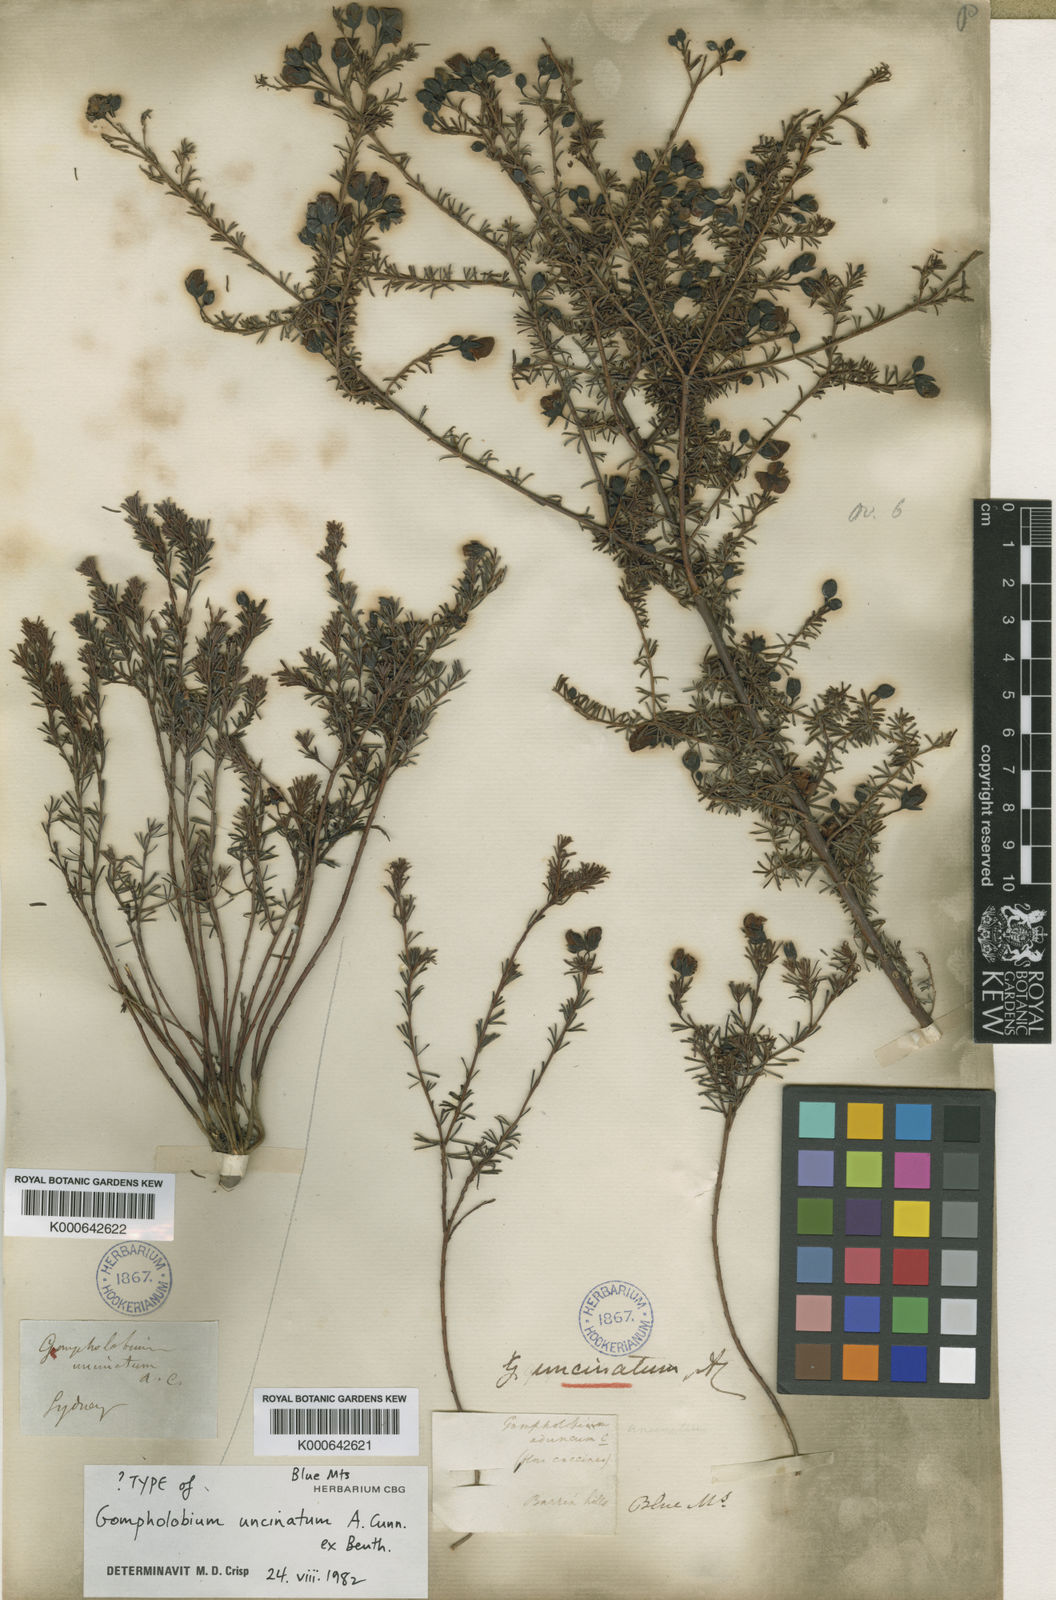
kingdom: Plantae
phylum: Tracheophyta
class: Magnoliopsida
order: Fabales
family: Fabaceae
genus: Gompholobium
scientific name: Gompholobium uncinatum
